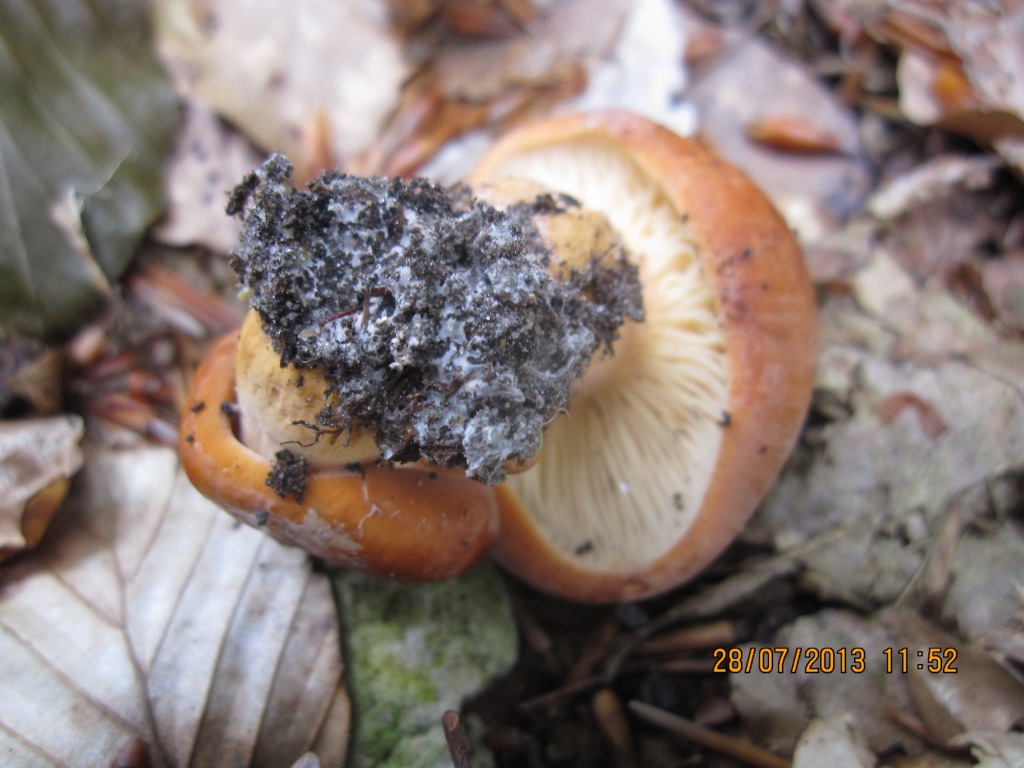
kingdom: Fungi
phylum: Basidiomycota
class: Agaricomycetes
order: Russulales
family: Russulaceae
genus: Lactifluus
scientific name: Lactifluus volemus
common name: spiselig mælkehat
